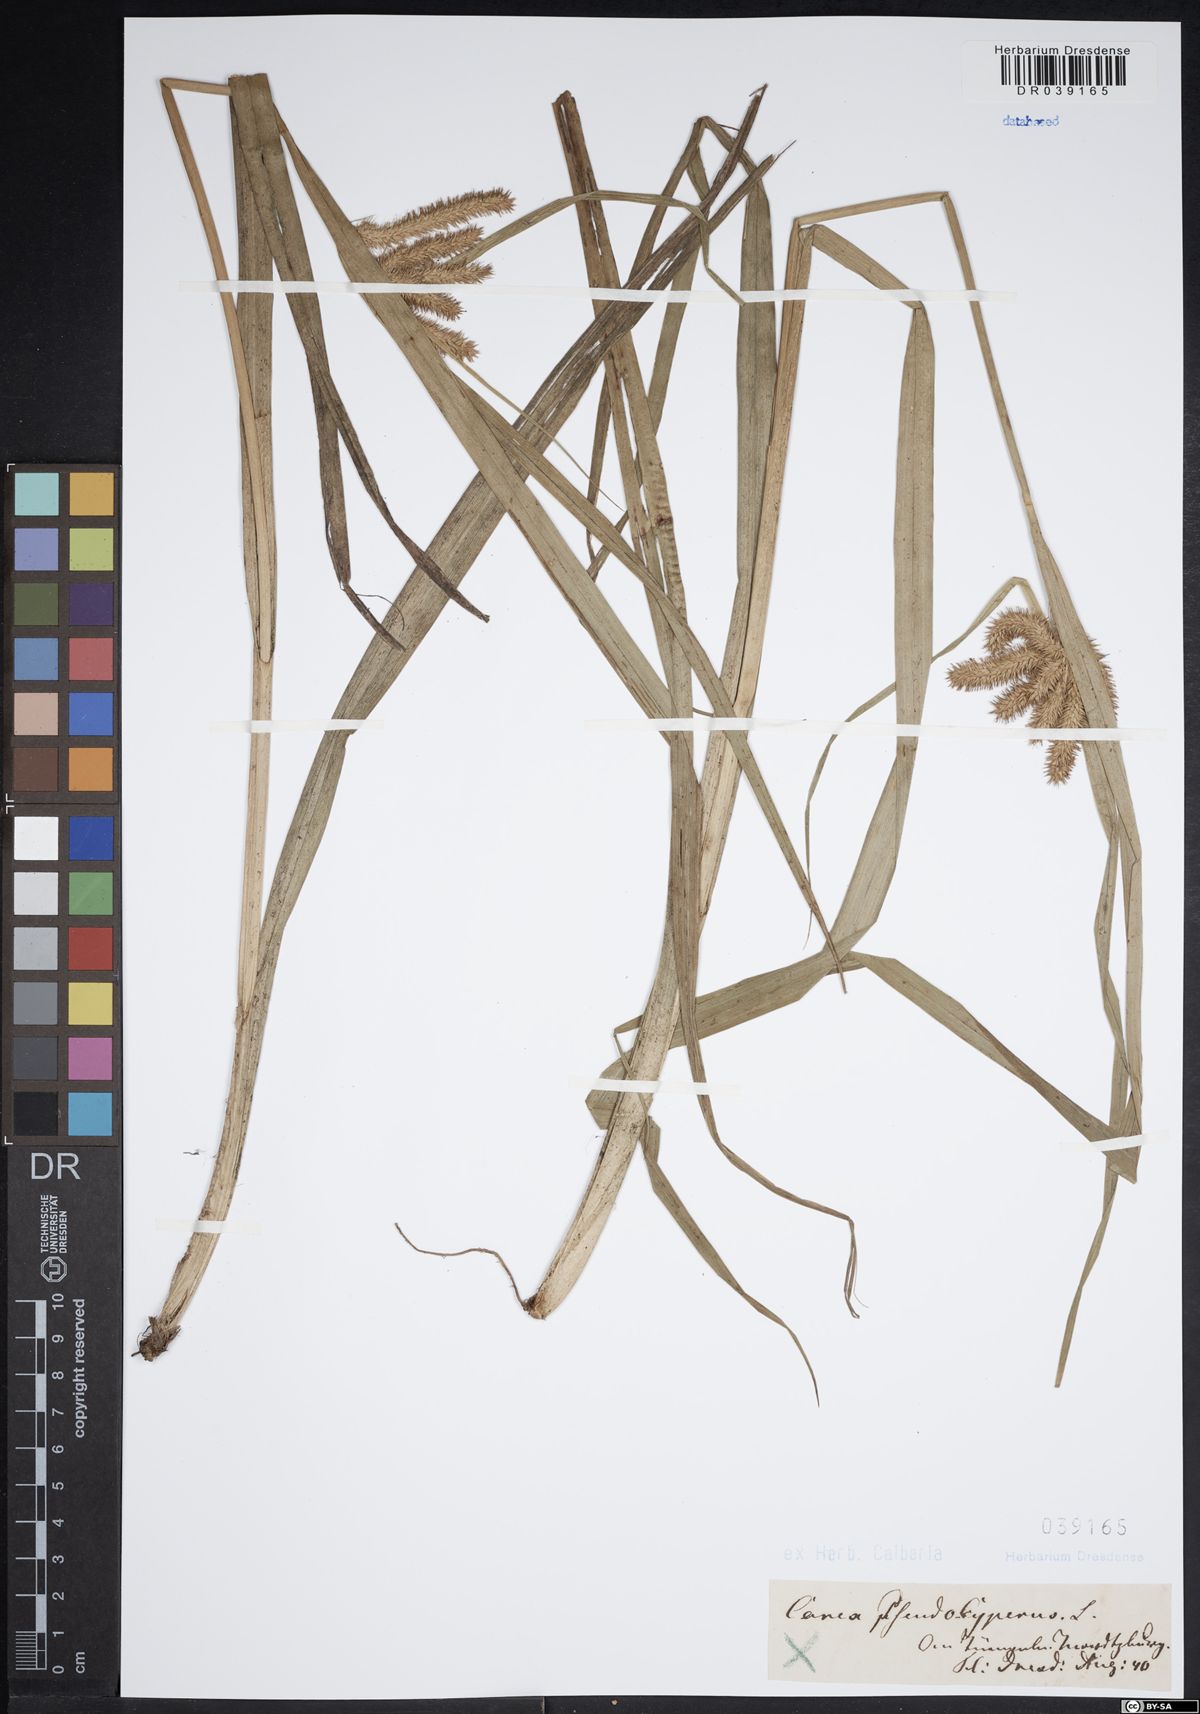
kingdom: Plantae
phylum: Tracheophyta
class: Liliopsida
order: Poales
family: Cyperaceae
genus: Carex
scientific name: Carex pseudocyperus
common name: Cyperus sedge
